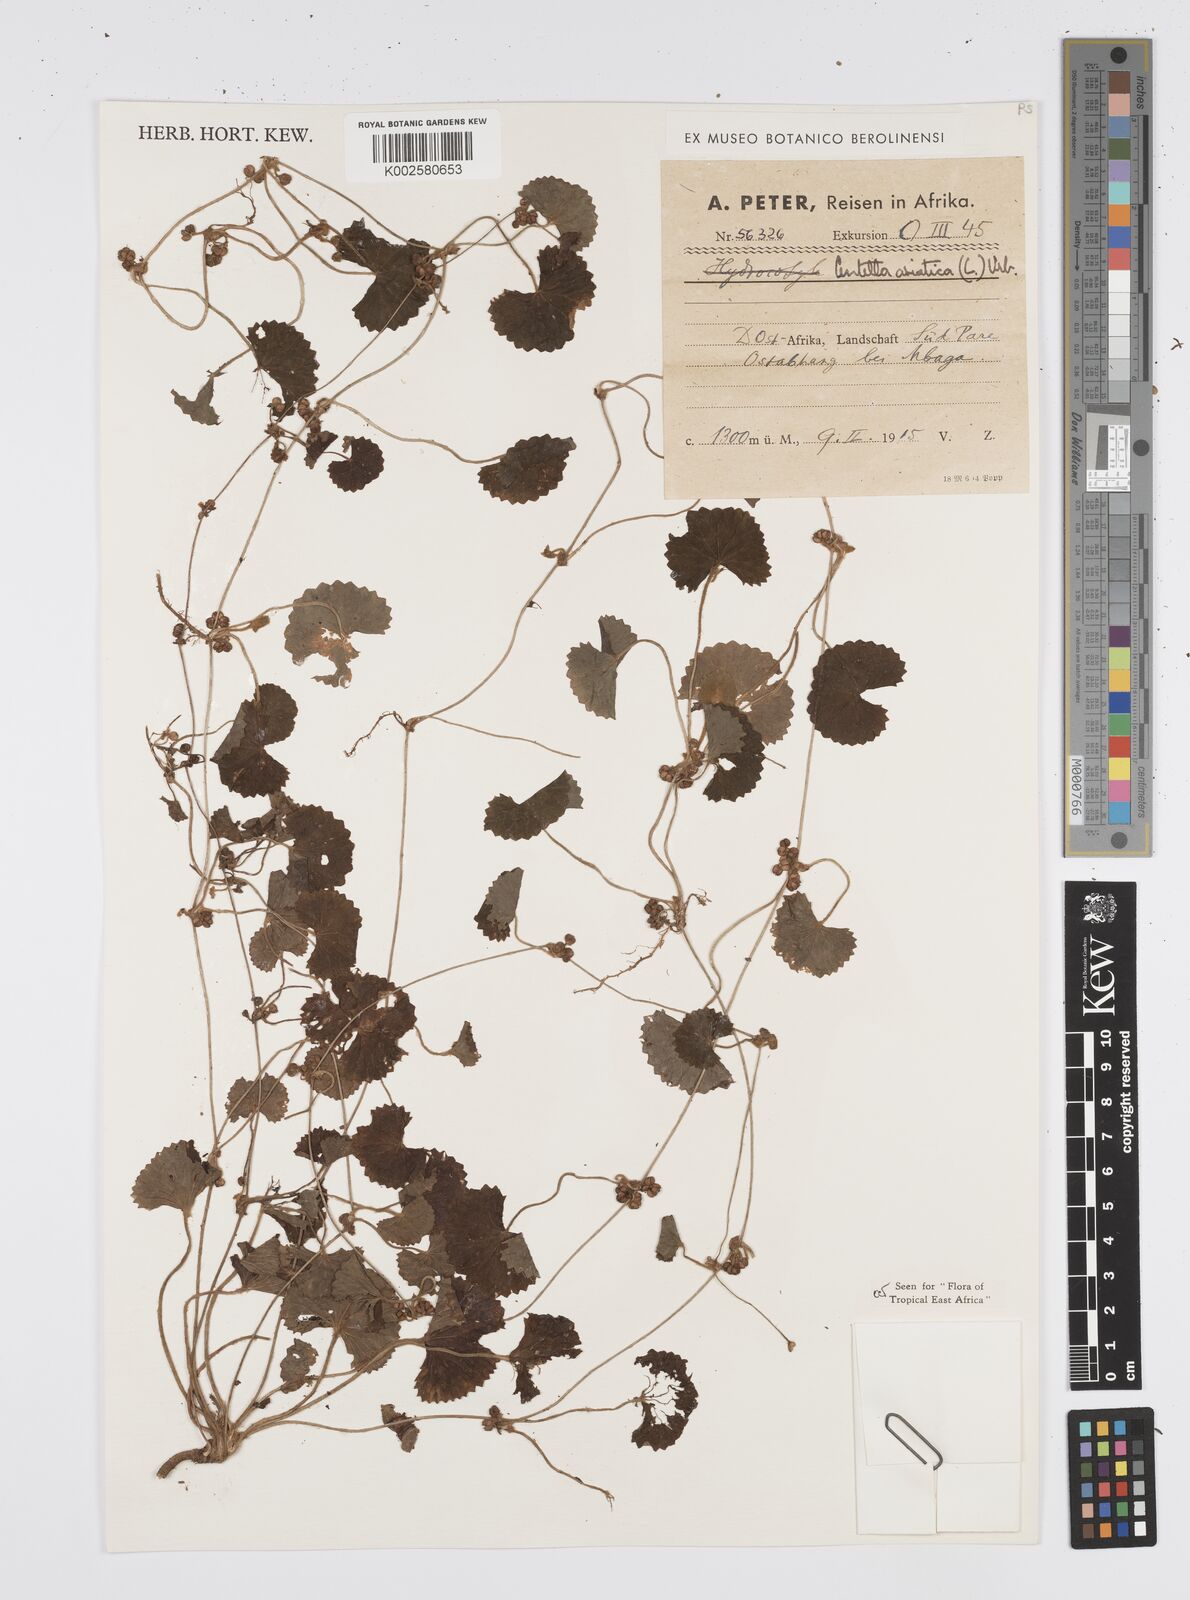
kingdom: Plantae
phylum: Tracheophyta
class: Magnoliopsida
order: Apiales
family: Apiaceae
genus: Centella
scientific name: Centella asiatica
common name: Spadeleaf
